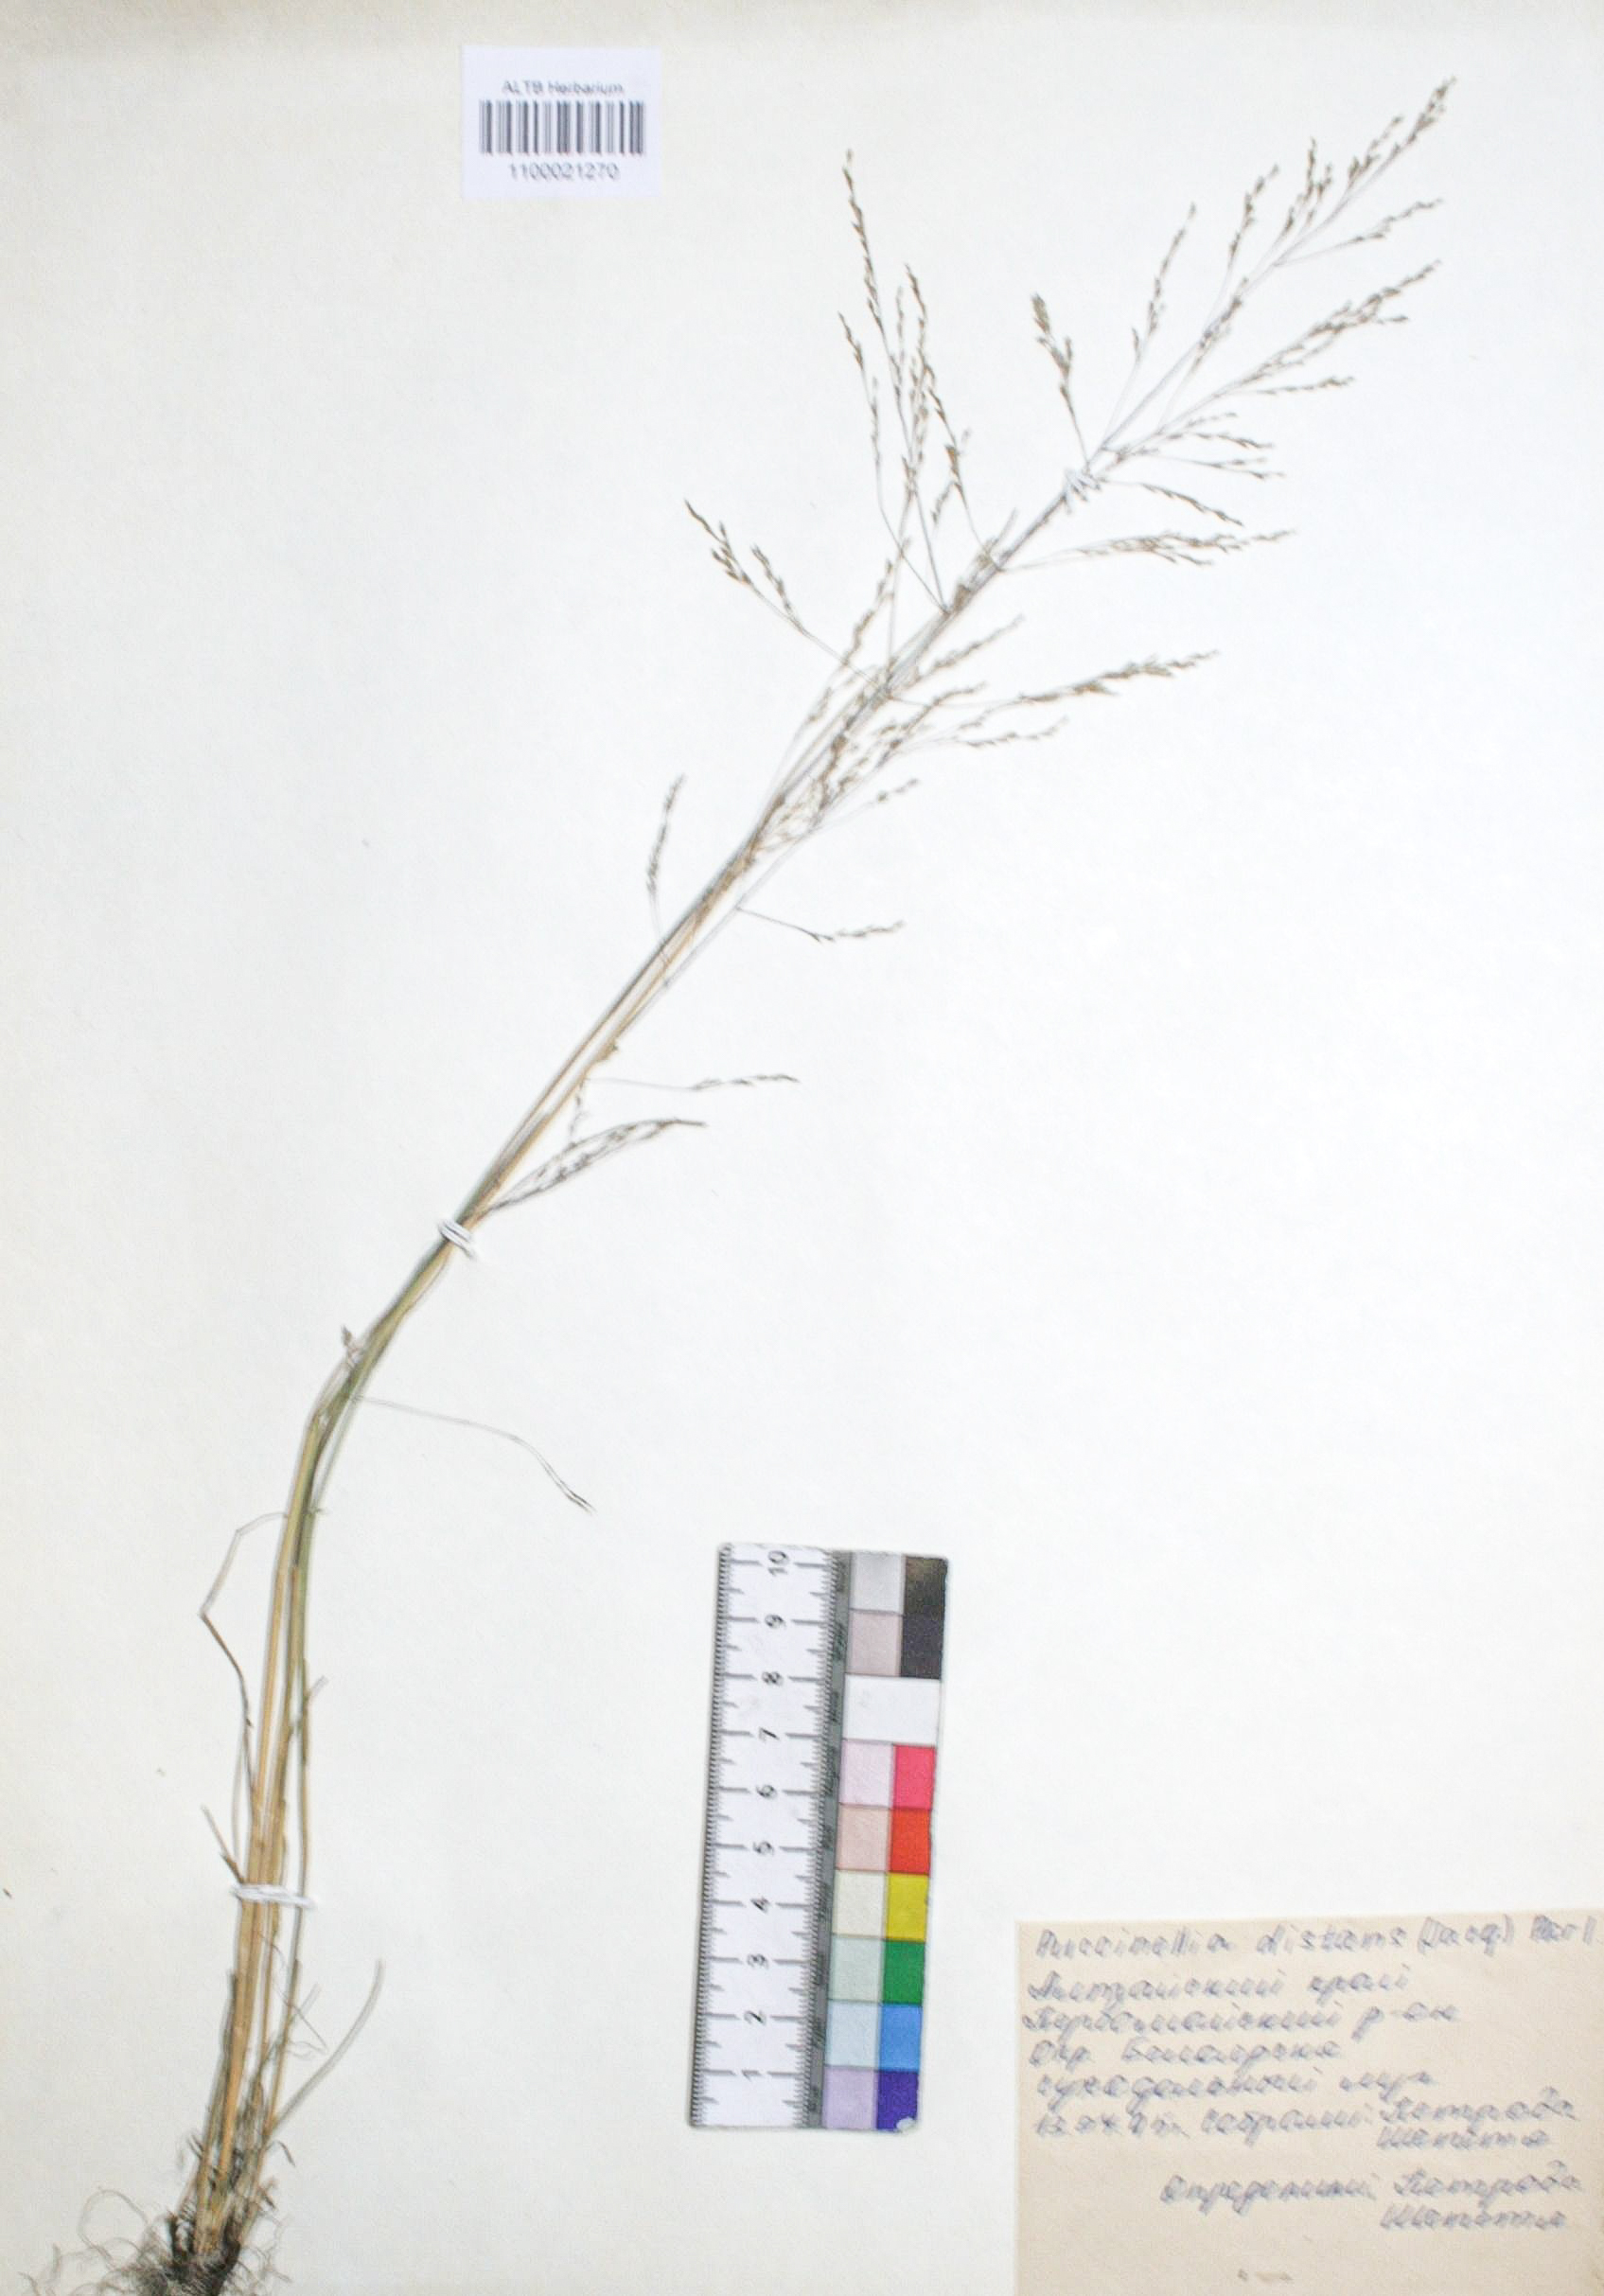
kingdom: Plantae
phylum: Tracheophyta
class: Liliopsida
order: Poales
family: Poaceae
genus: Puccinellia
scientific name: Puccinellia distans
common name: Weeping alkaligrass
